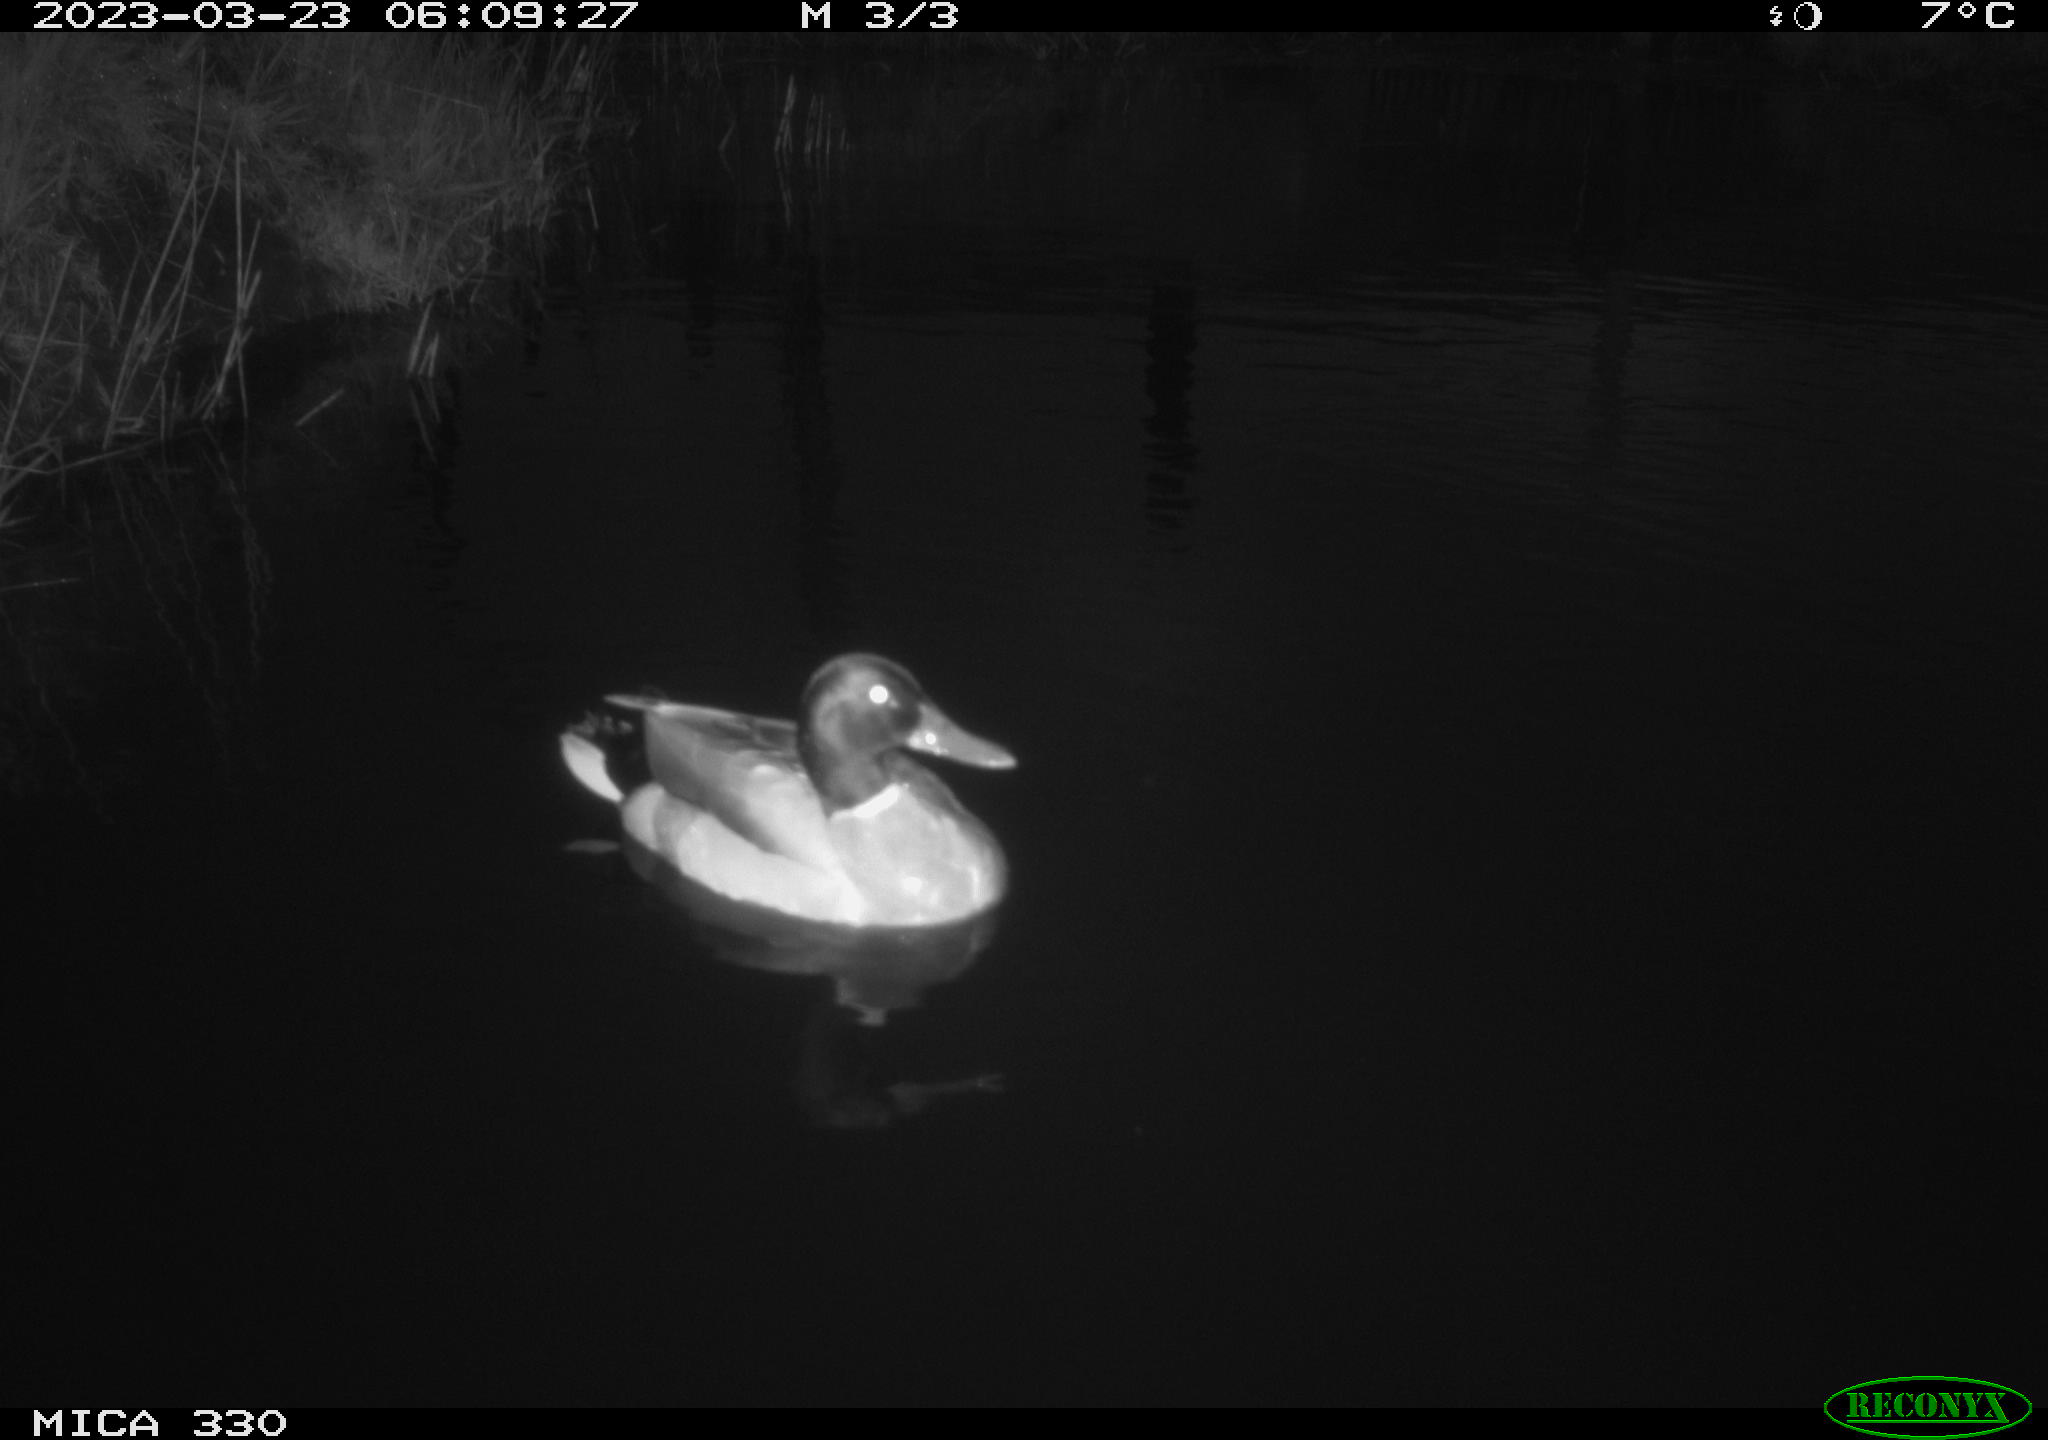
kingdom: Animalia
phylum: Chordata
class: Aves
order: Anseriformes
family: Anatidae
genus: Anas
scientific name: Anas
